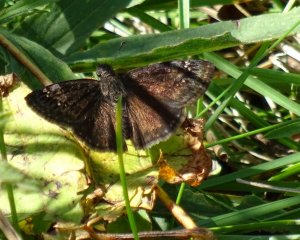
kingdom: Animalia
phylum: Arthropoda
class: Insecta
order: Lepidoptera
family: Hesperiidae
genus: Gesta
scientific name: Gesta
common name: Wild Indigo Duskywing
